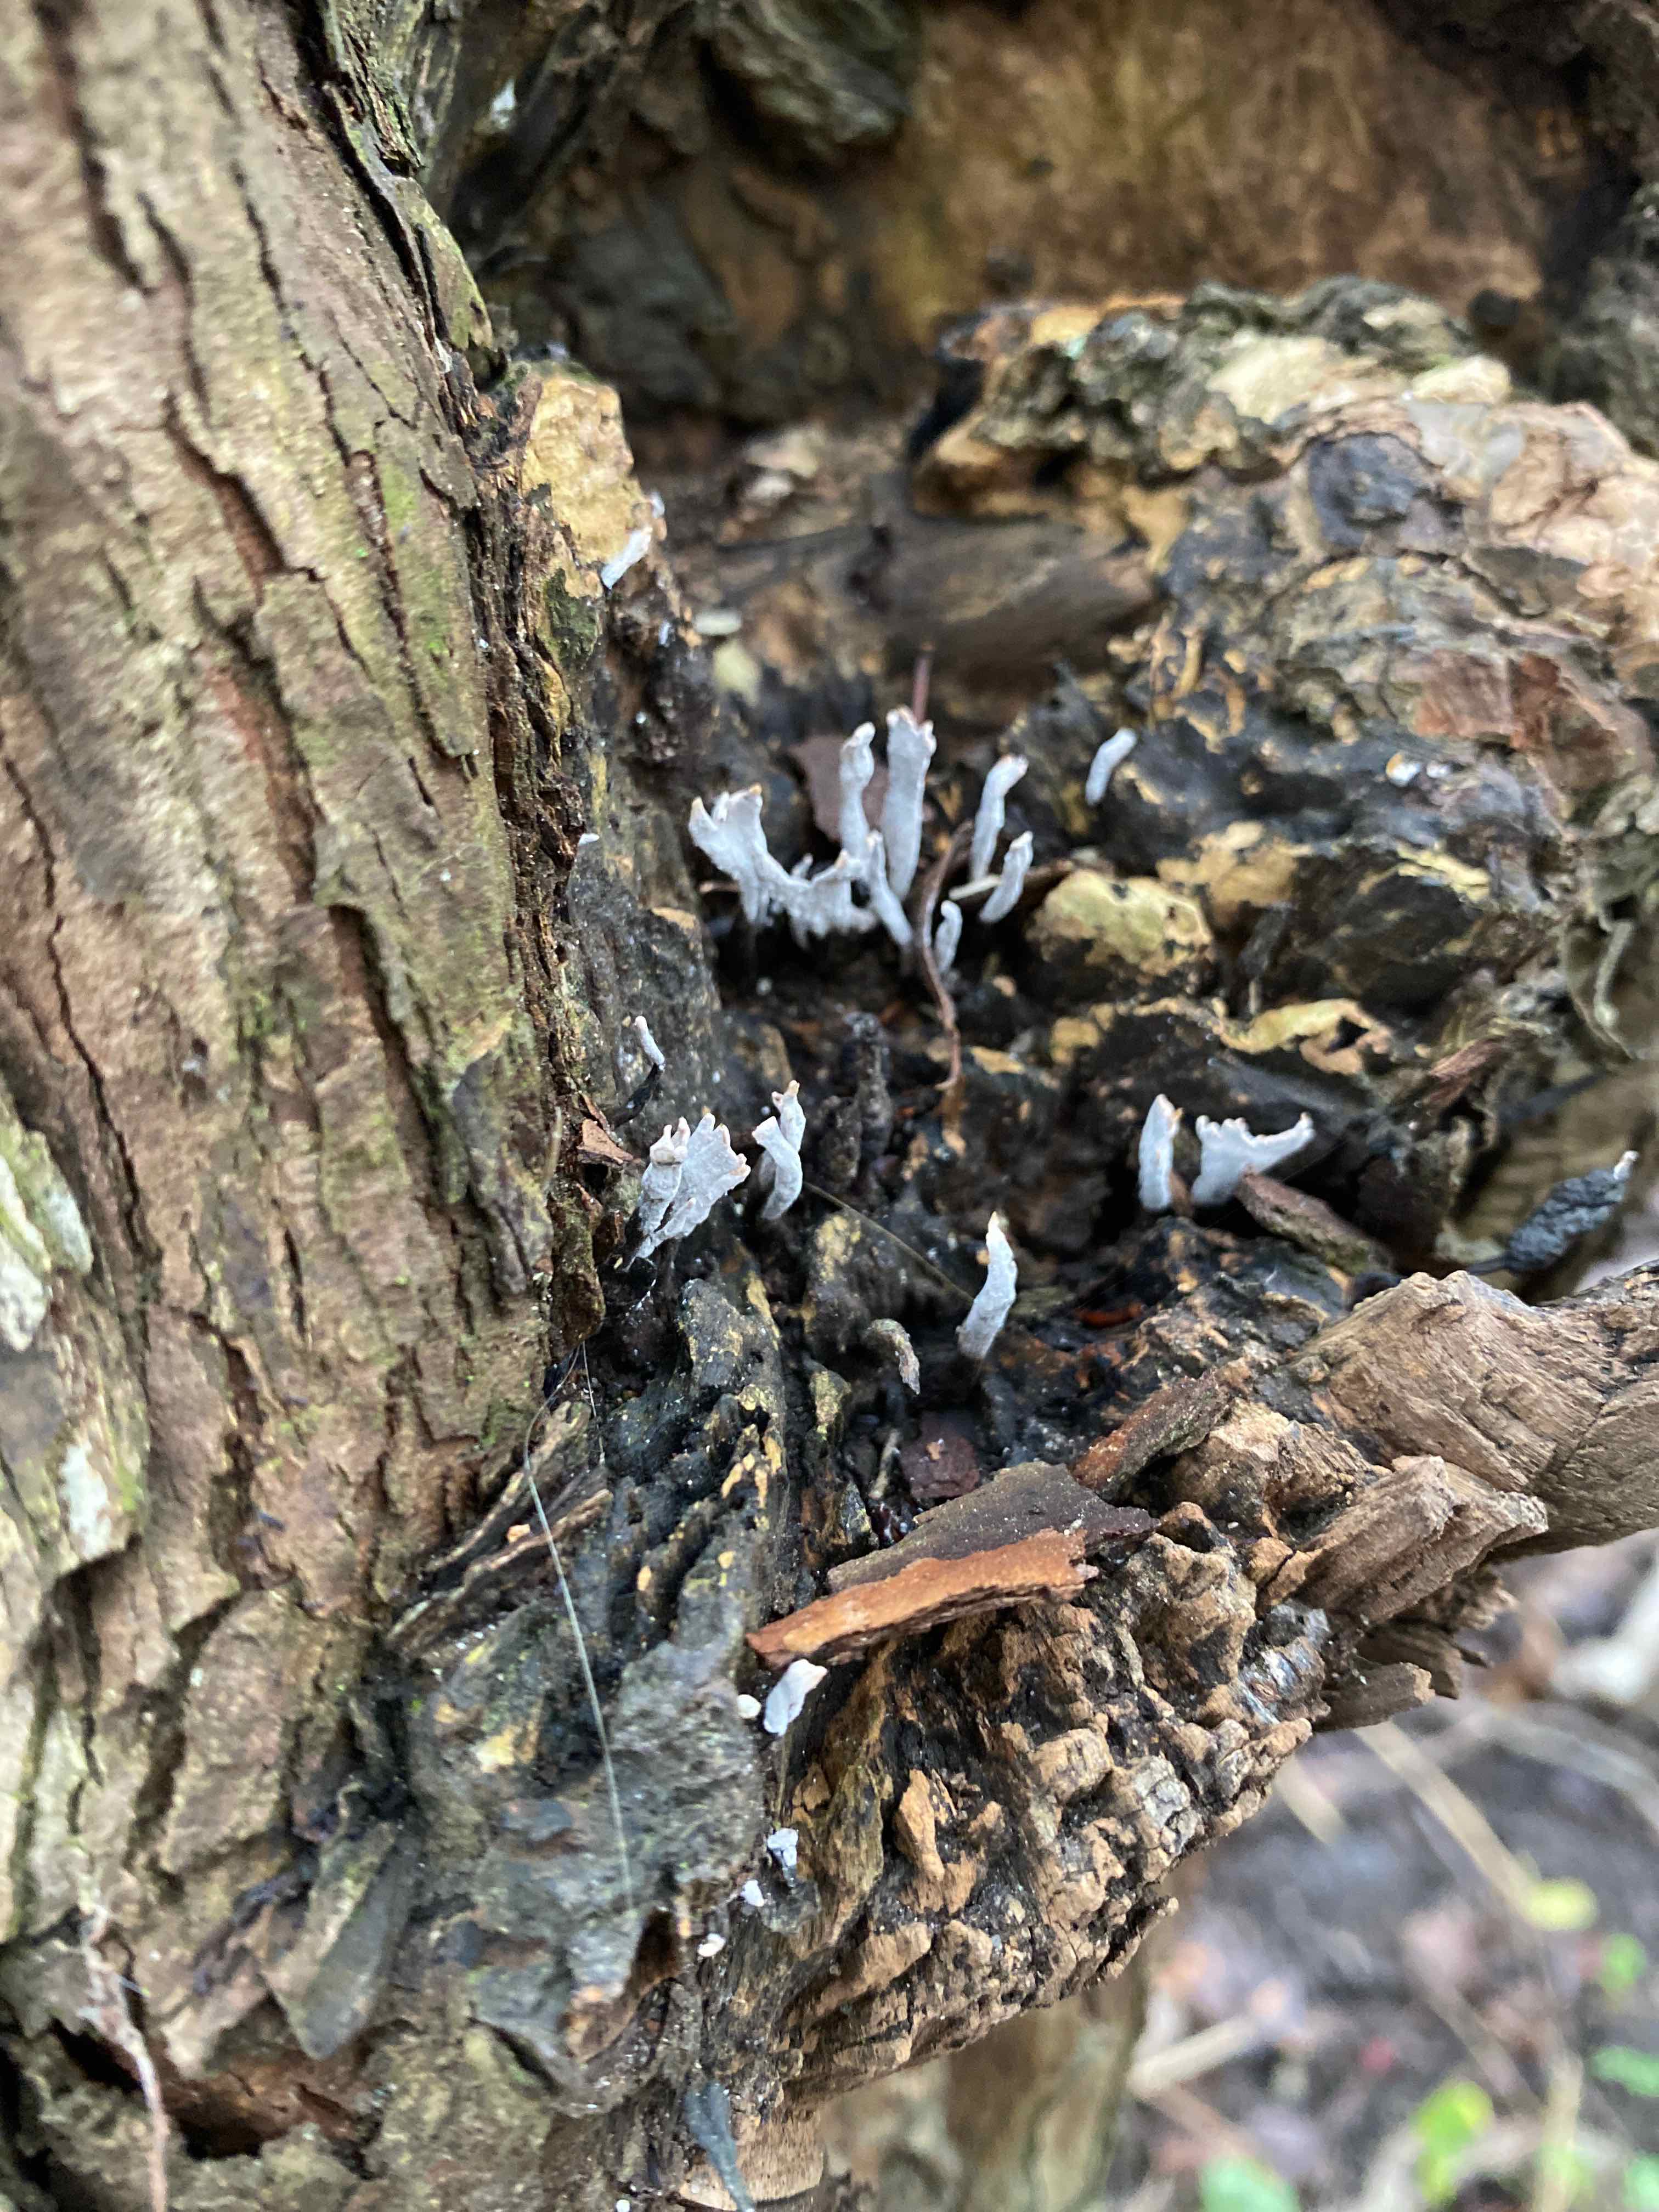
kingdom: Fungi
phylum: Ascomycota
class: Sordariomycetes
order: Xylariales
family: Xylariaceae
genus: Xylaria
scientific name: Xylaria hypoxylon
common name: grenet stødsvamp
